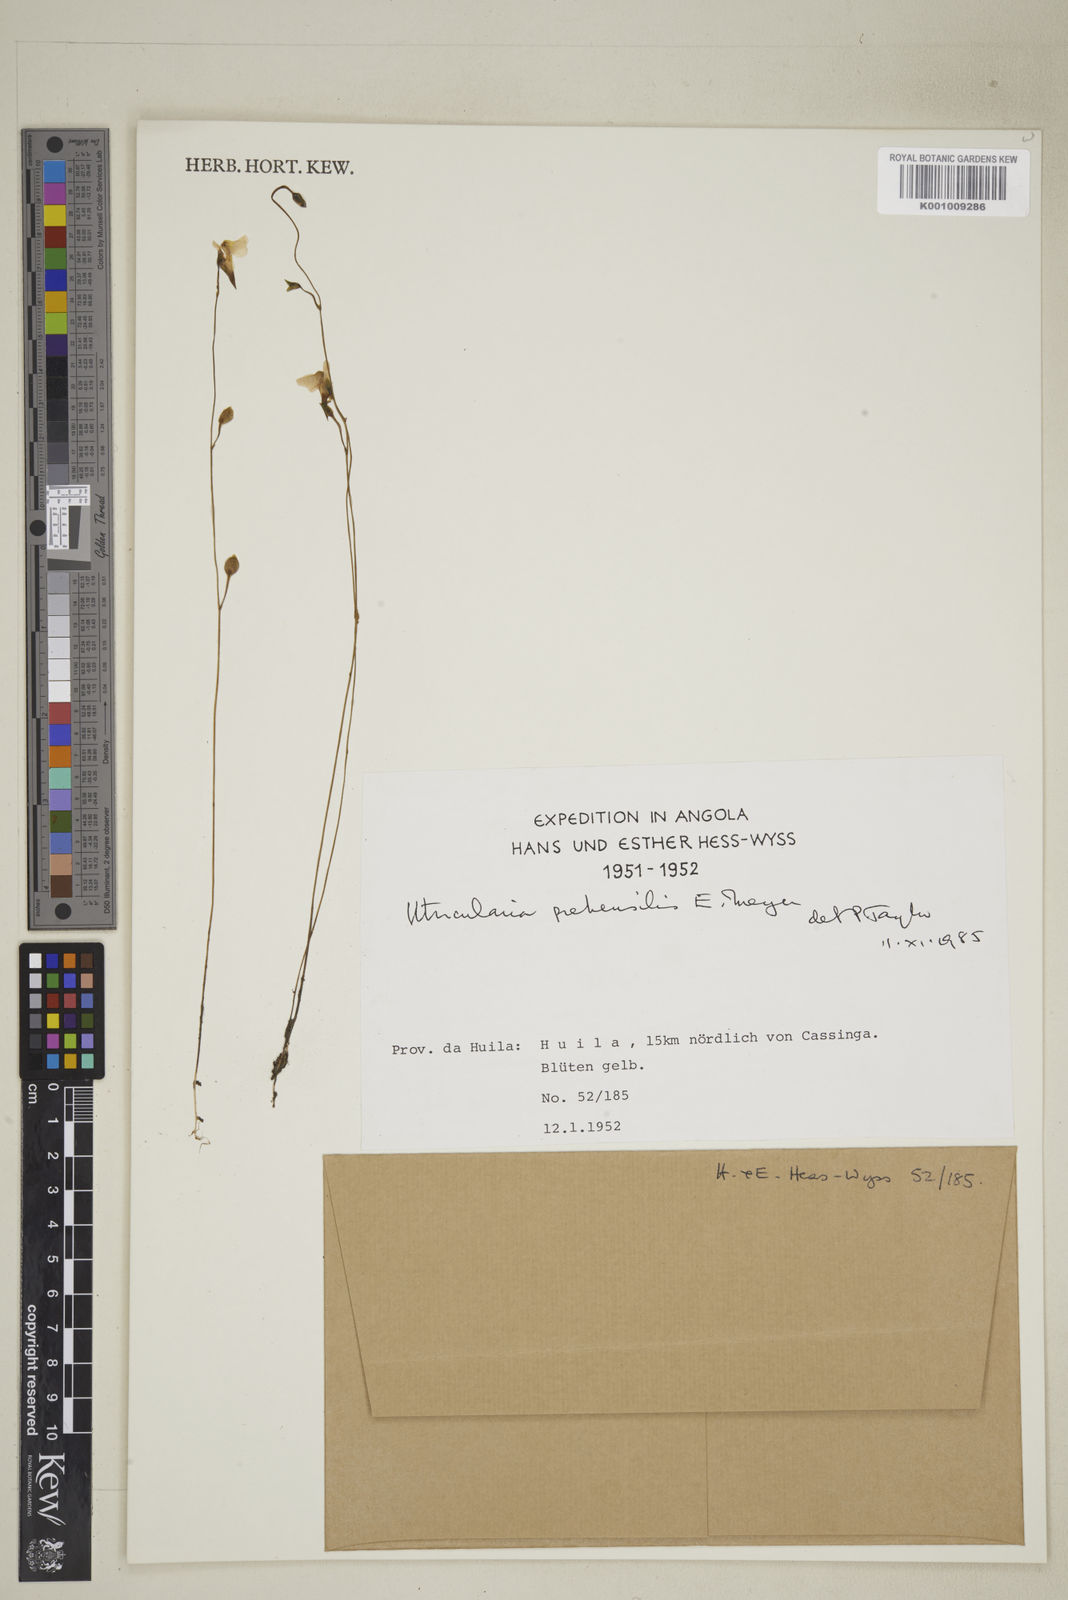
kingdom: Plantae
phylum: Tracheophyta
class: Magnoliopsida
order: Lamiales
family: Lentibulariaceae
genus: Utricularia
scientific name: Utricularia prehensilis
